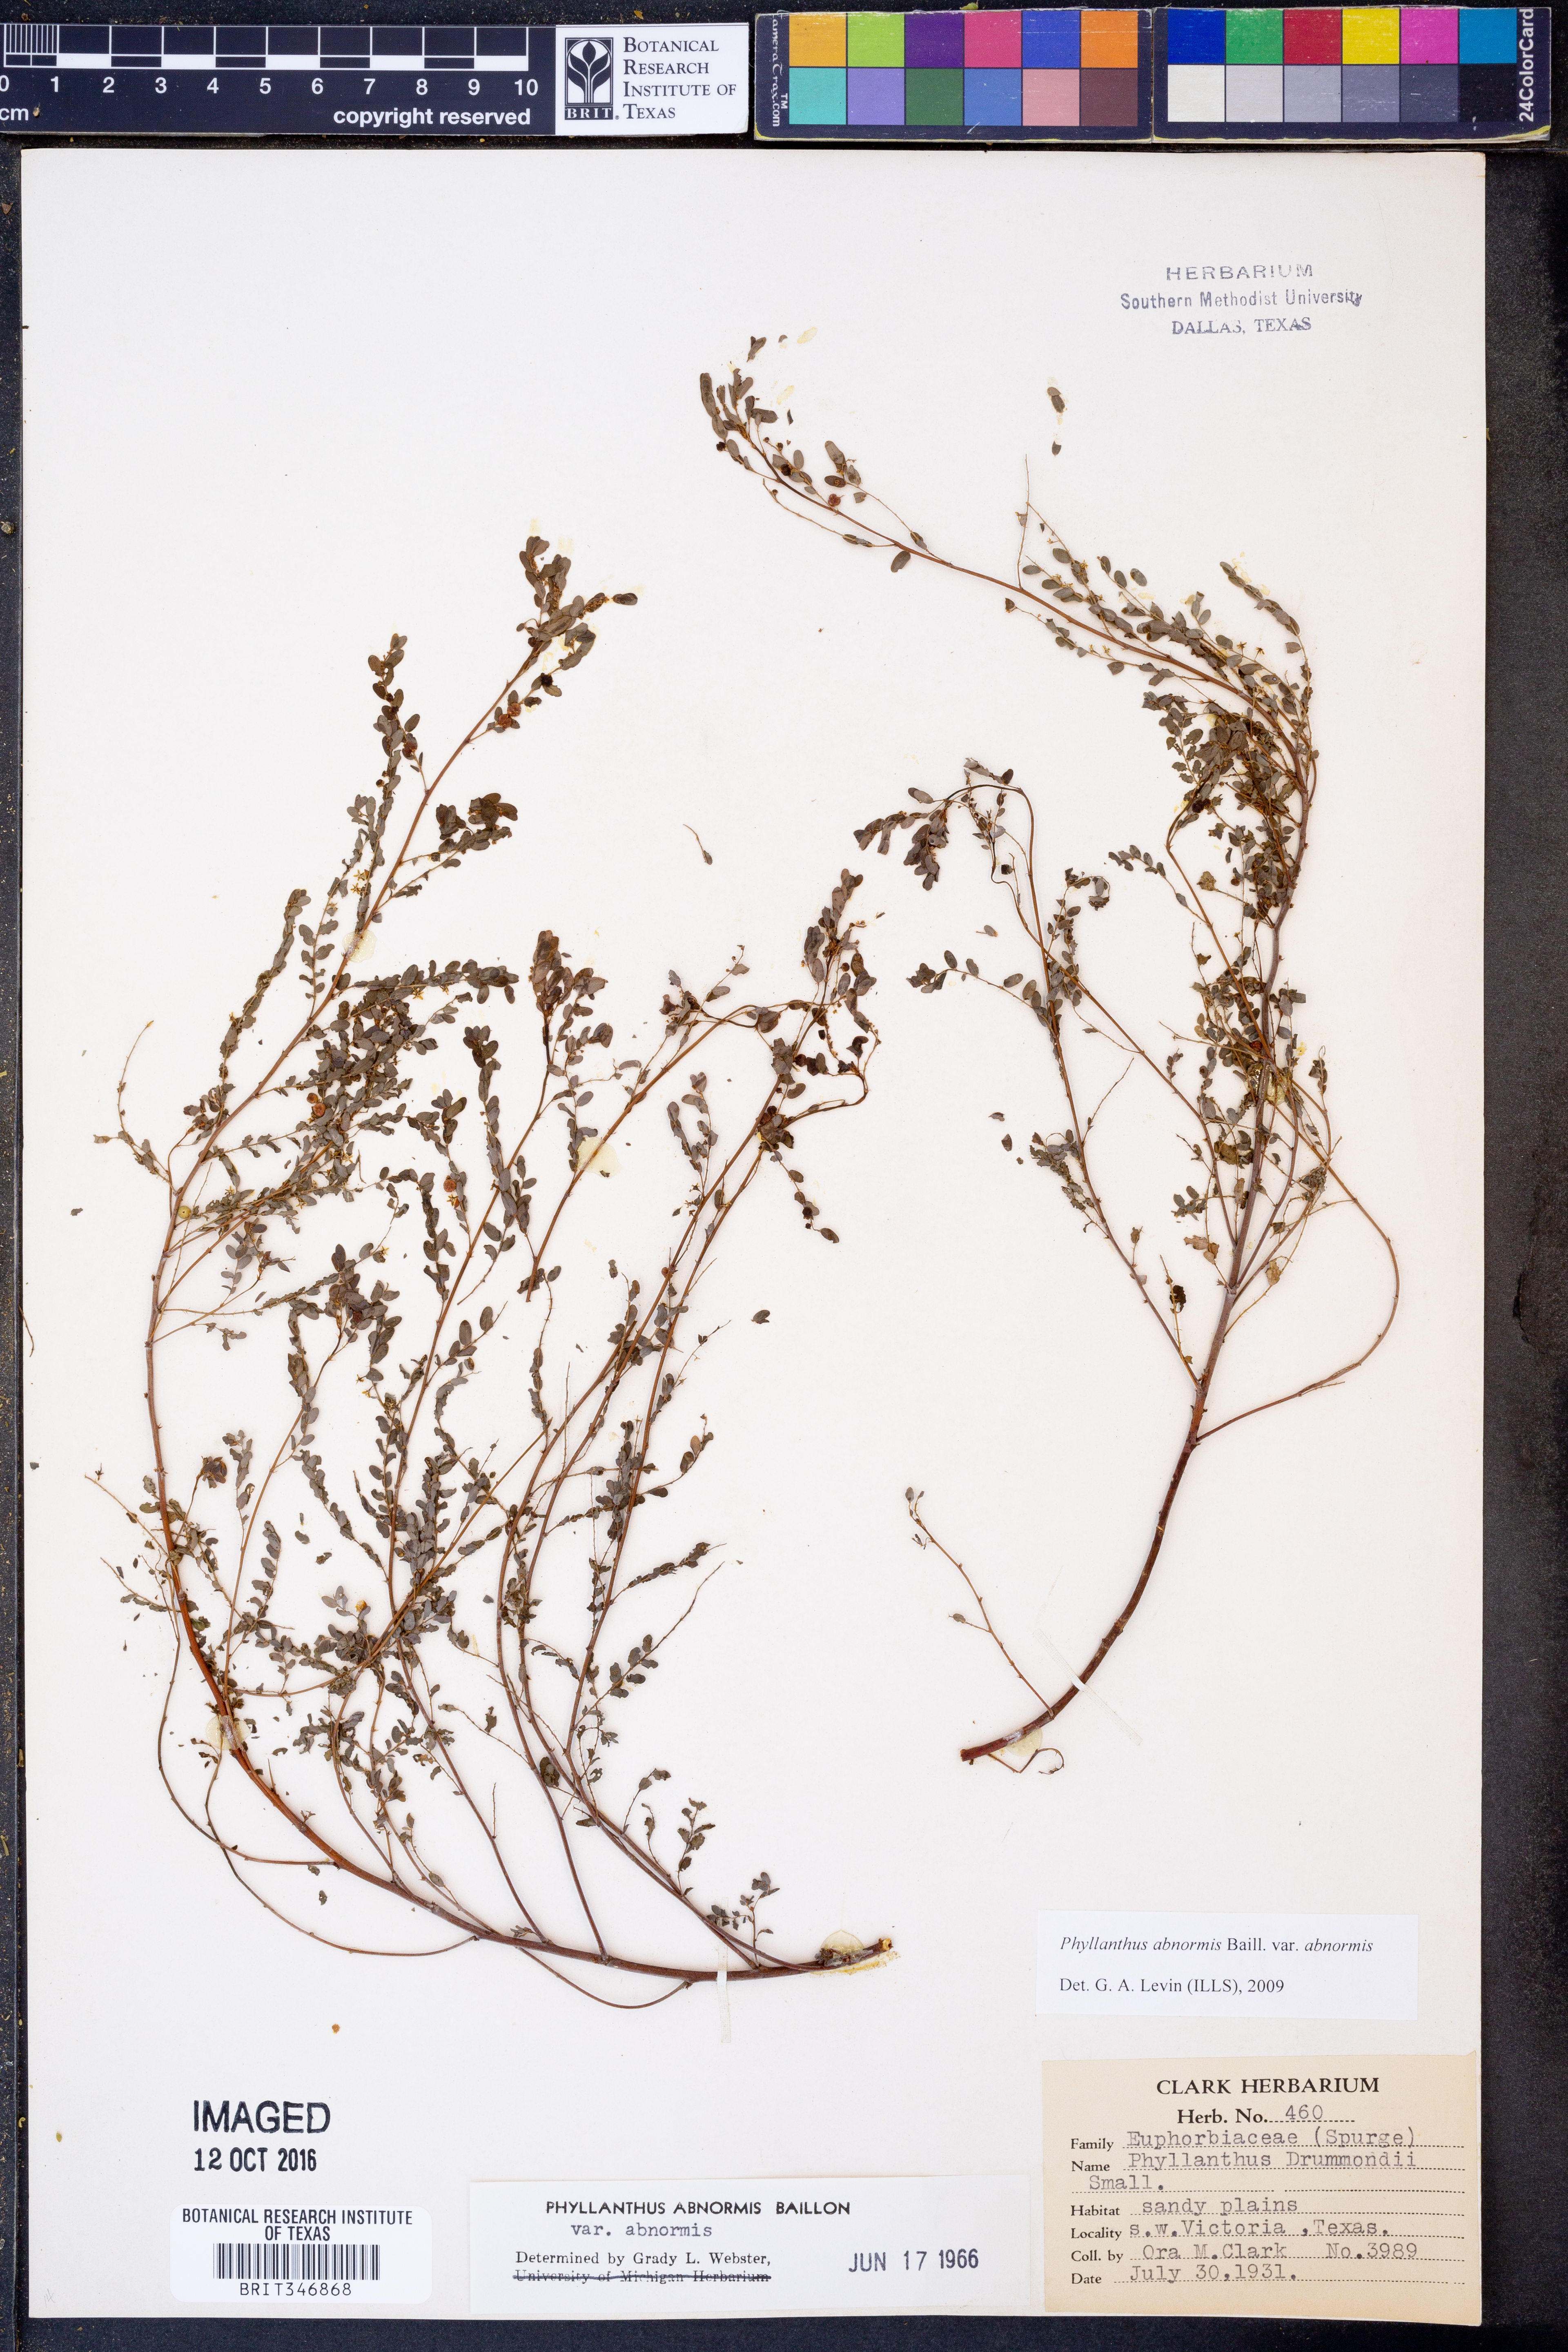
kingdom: Plantae
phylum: Tracheophyta
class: Magnoliopsida
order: Malpighiales
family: Phyllanthaceae
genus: Phyllanthus
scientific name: Phyllanthus abnormis
